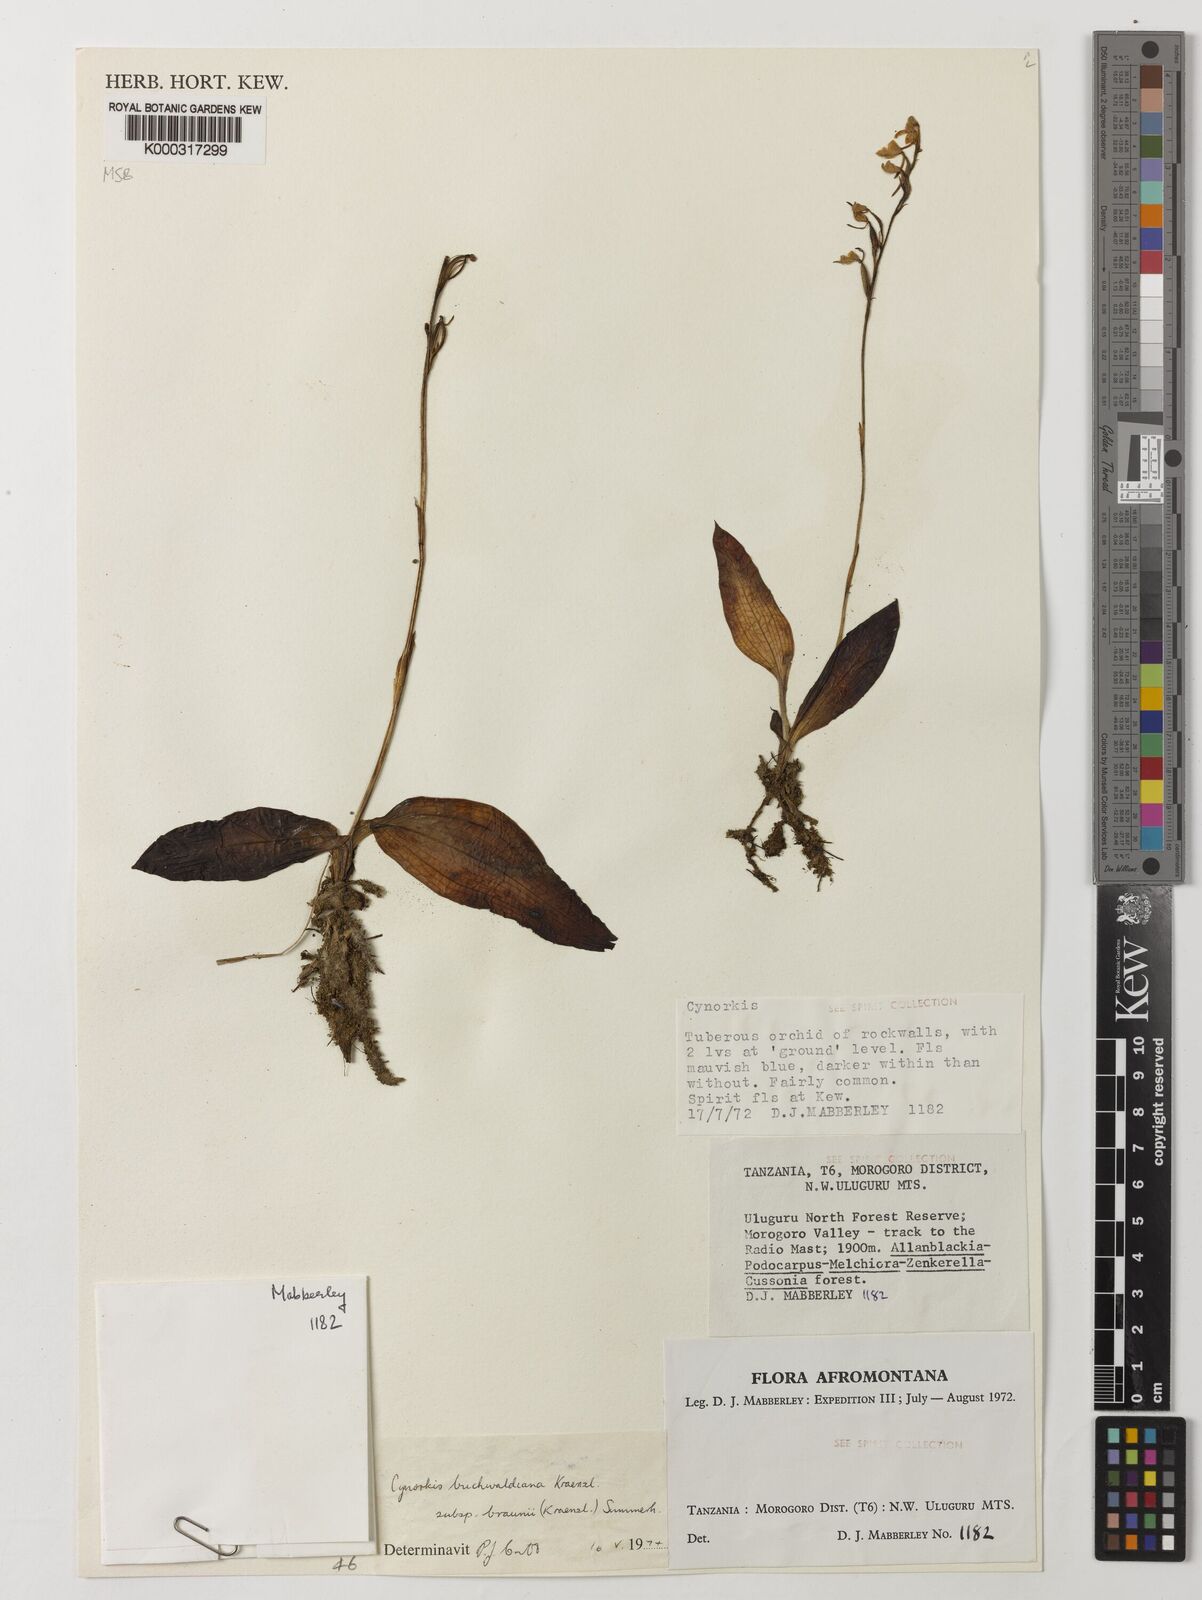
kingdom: Plantae
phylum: Tracheophyta
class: Liliopsida
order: Asparagales
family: Orchidaceae
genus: Cynorkis
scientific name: Cynorkis buchwaldiana
